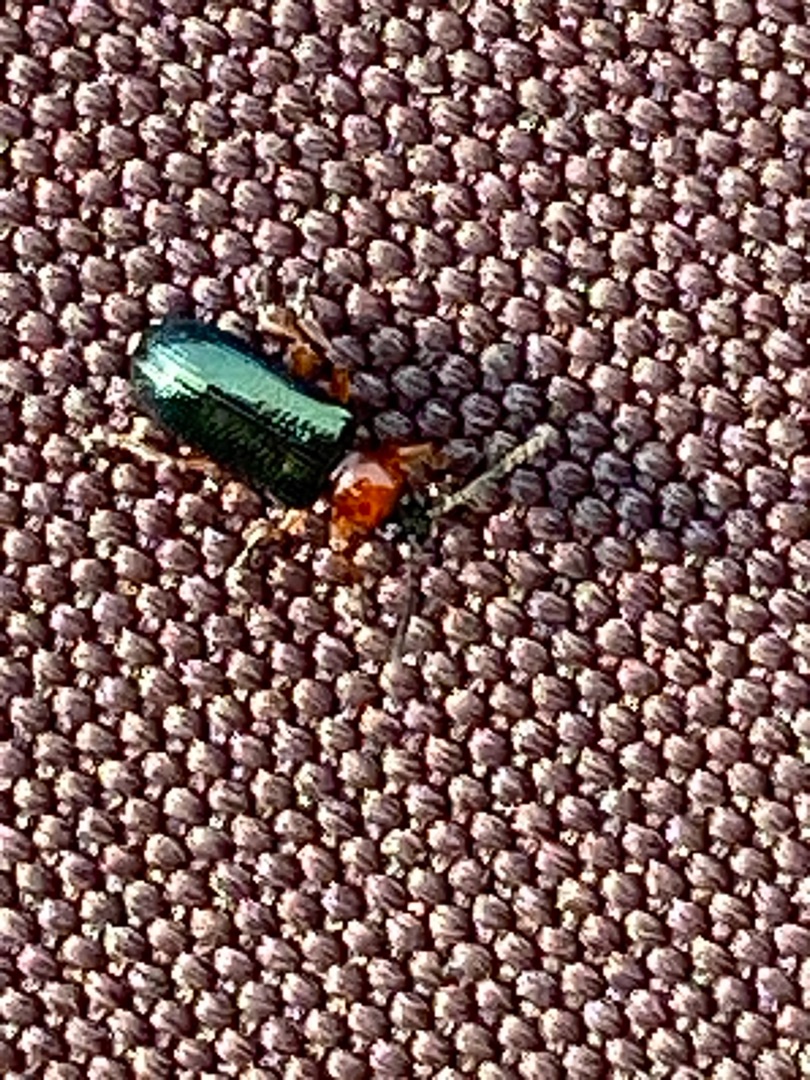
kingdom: Animalia
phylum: Arthropoda
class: Insecta
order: Coleoptera
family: Chrysomelidae
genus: Oulema
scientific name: Oulema
